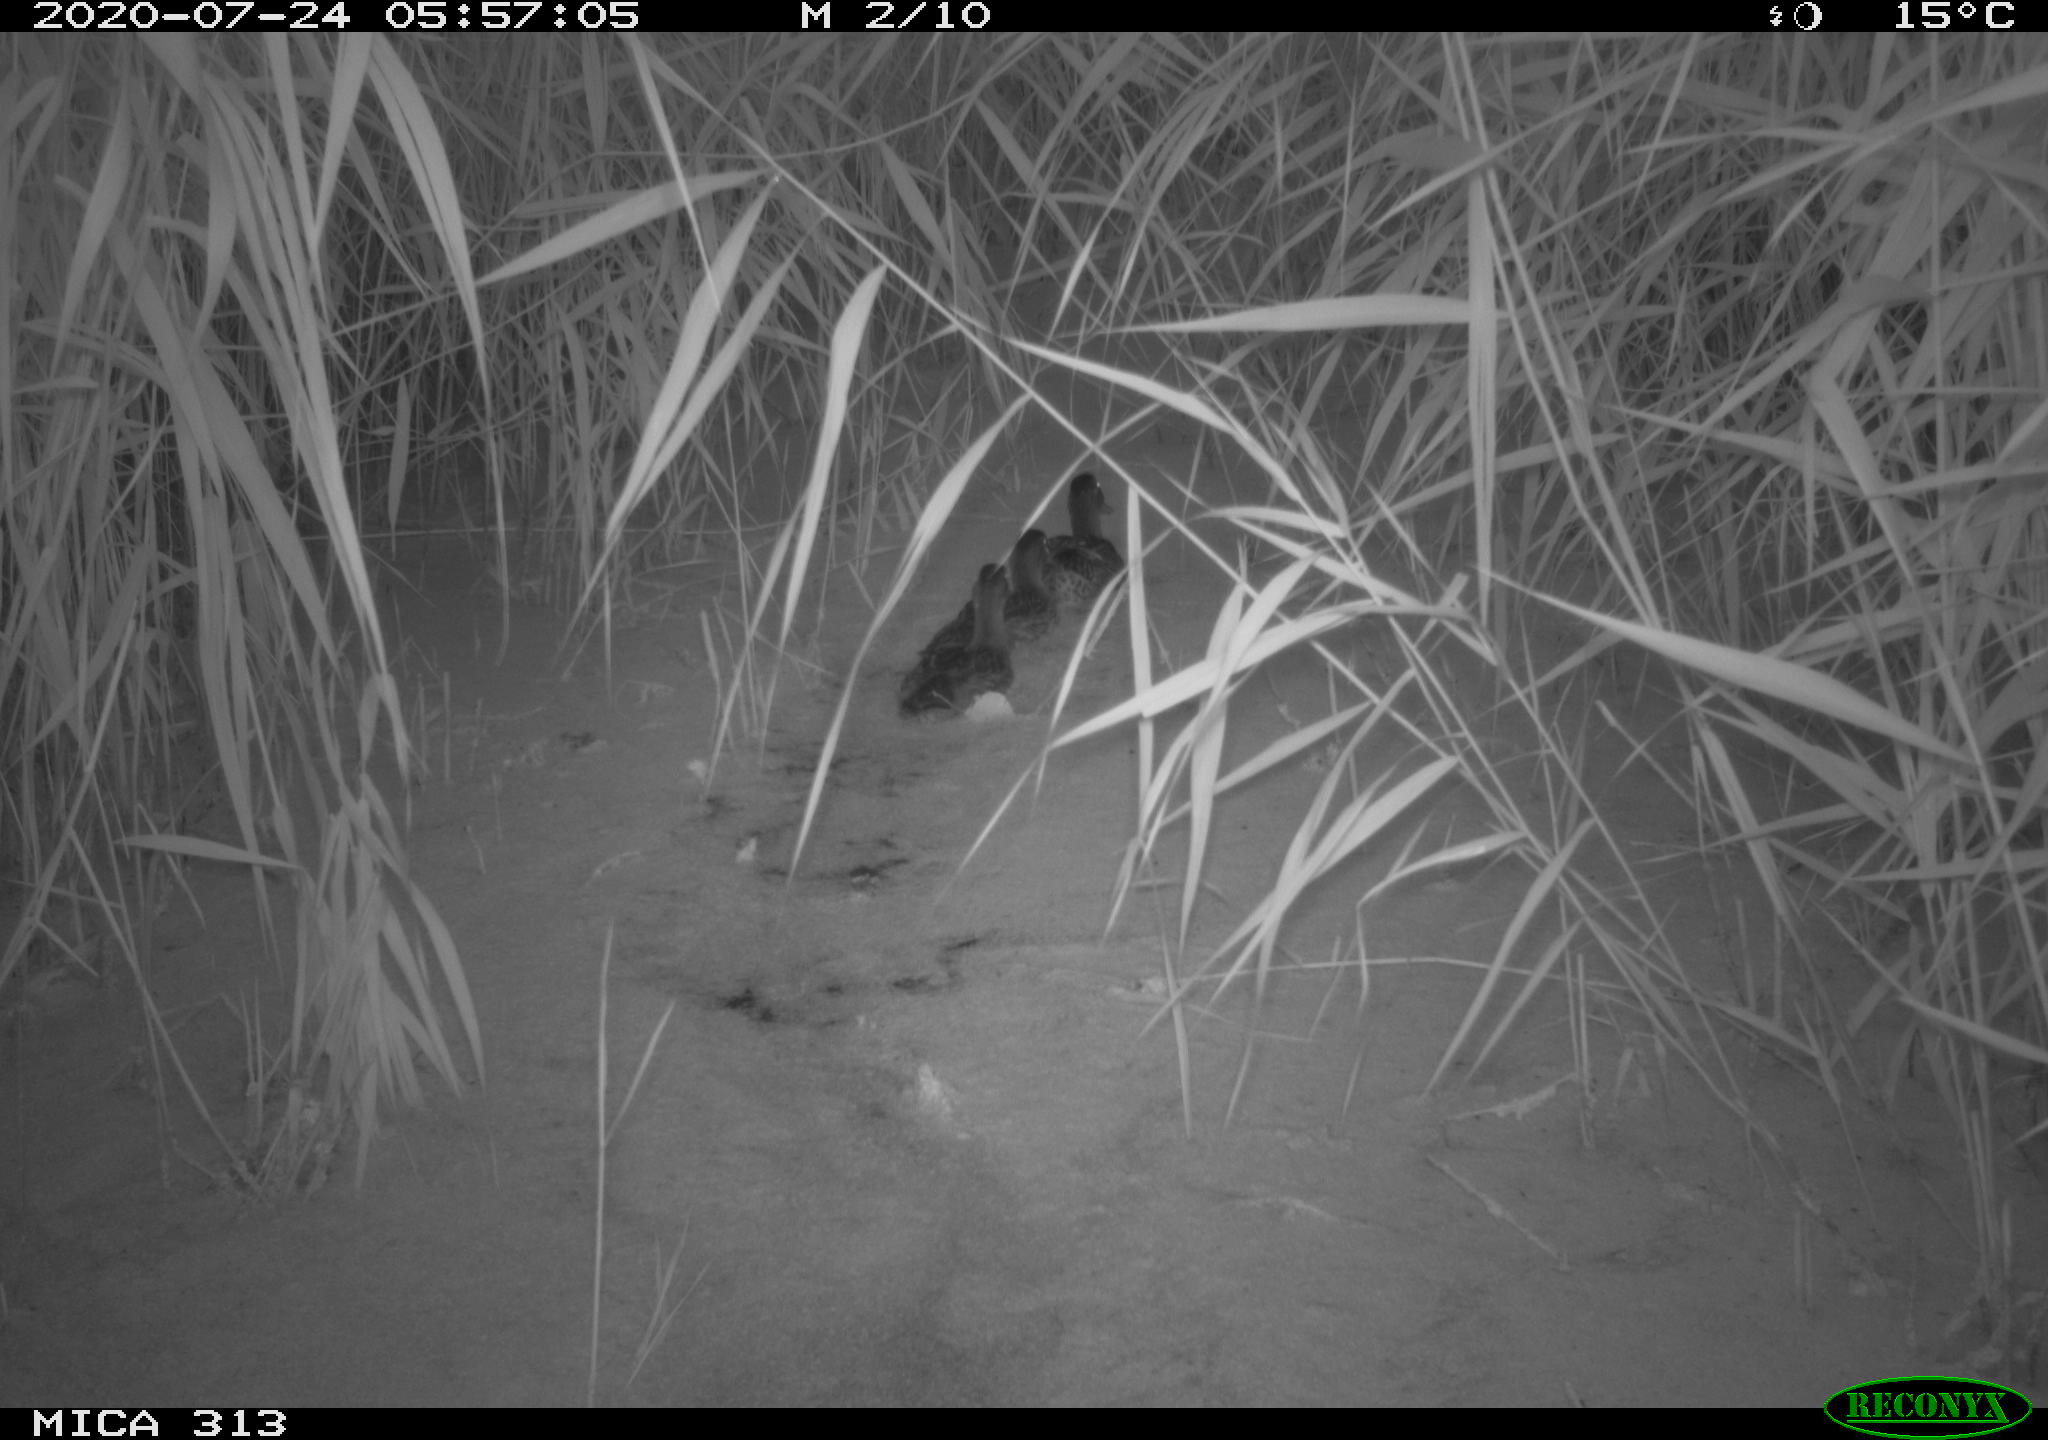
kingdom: Animalia
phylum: Chordata
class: Aves
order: Anseriformes
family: Anatidae
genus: Anas
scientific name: Anas platyrhynchos
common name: Mallard
